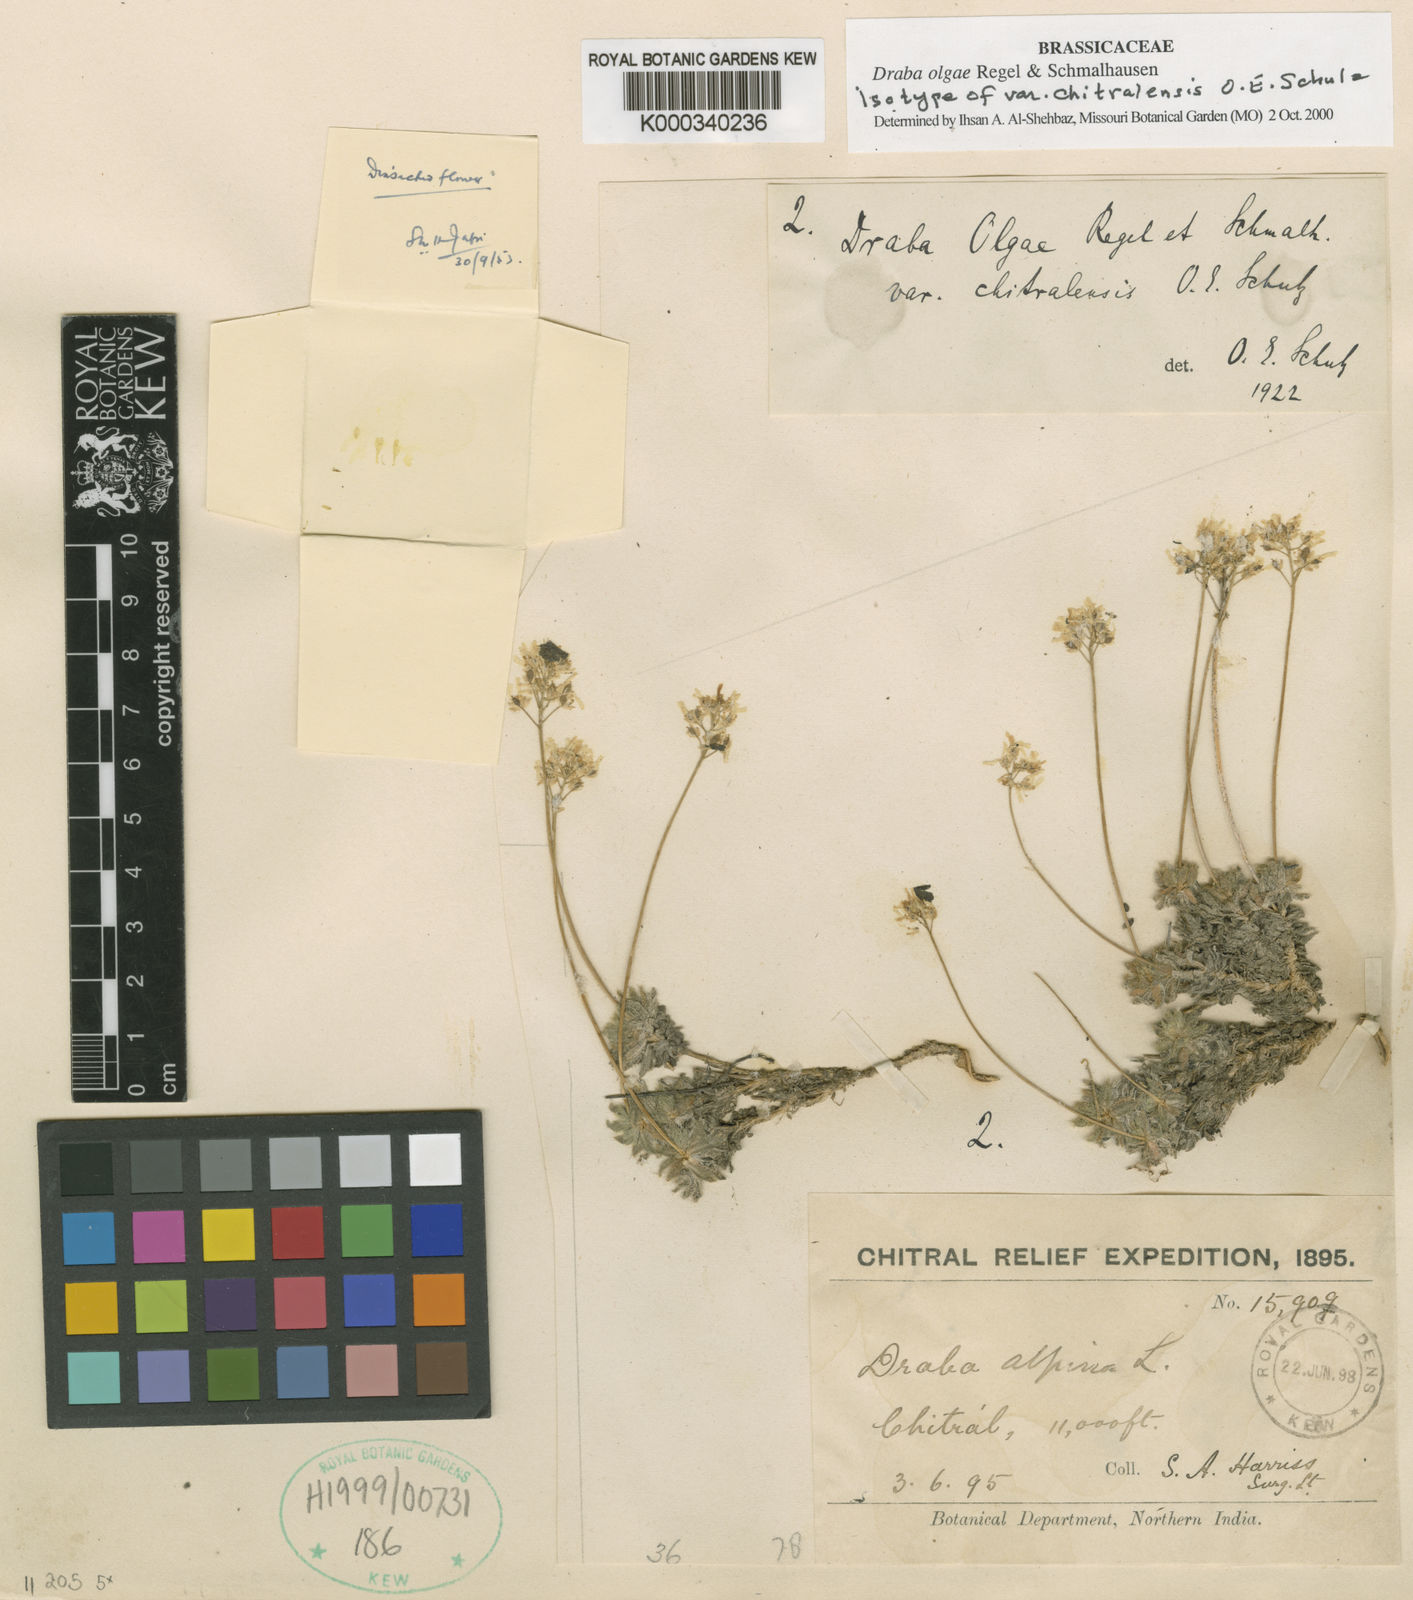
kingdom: Plantae
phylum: Tracheophyta
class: Magnoliopsida
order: Brassicales
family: Brassicaceae
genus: Draba
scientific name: Draba olgae
